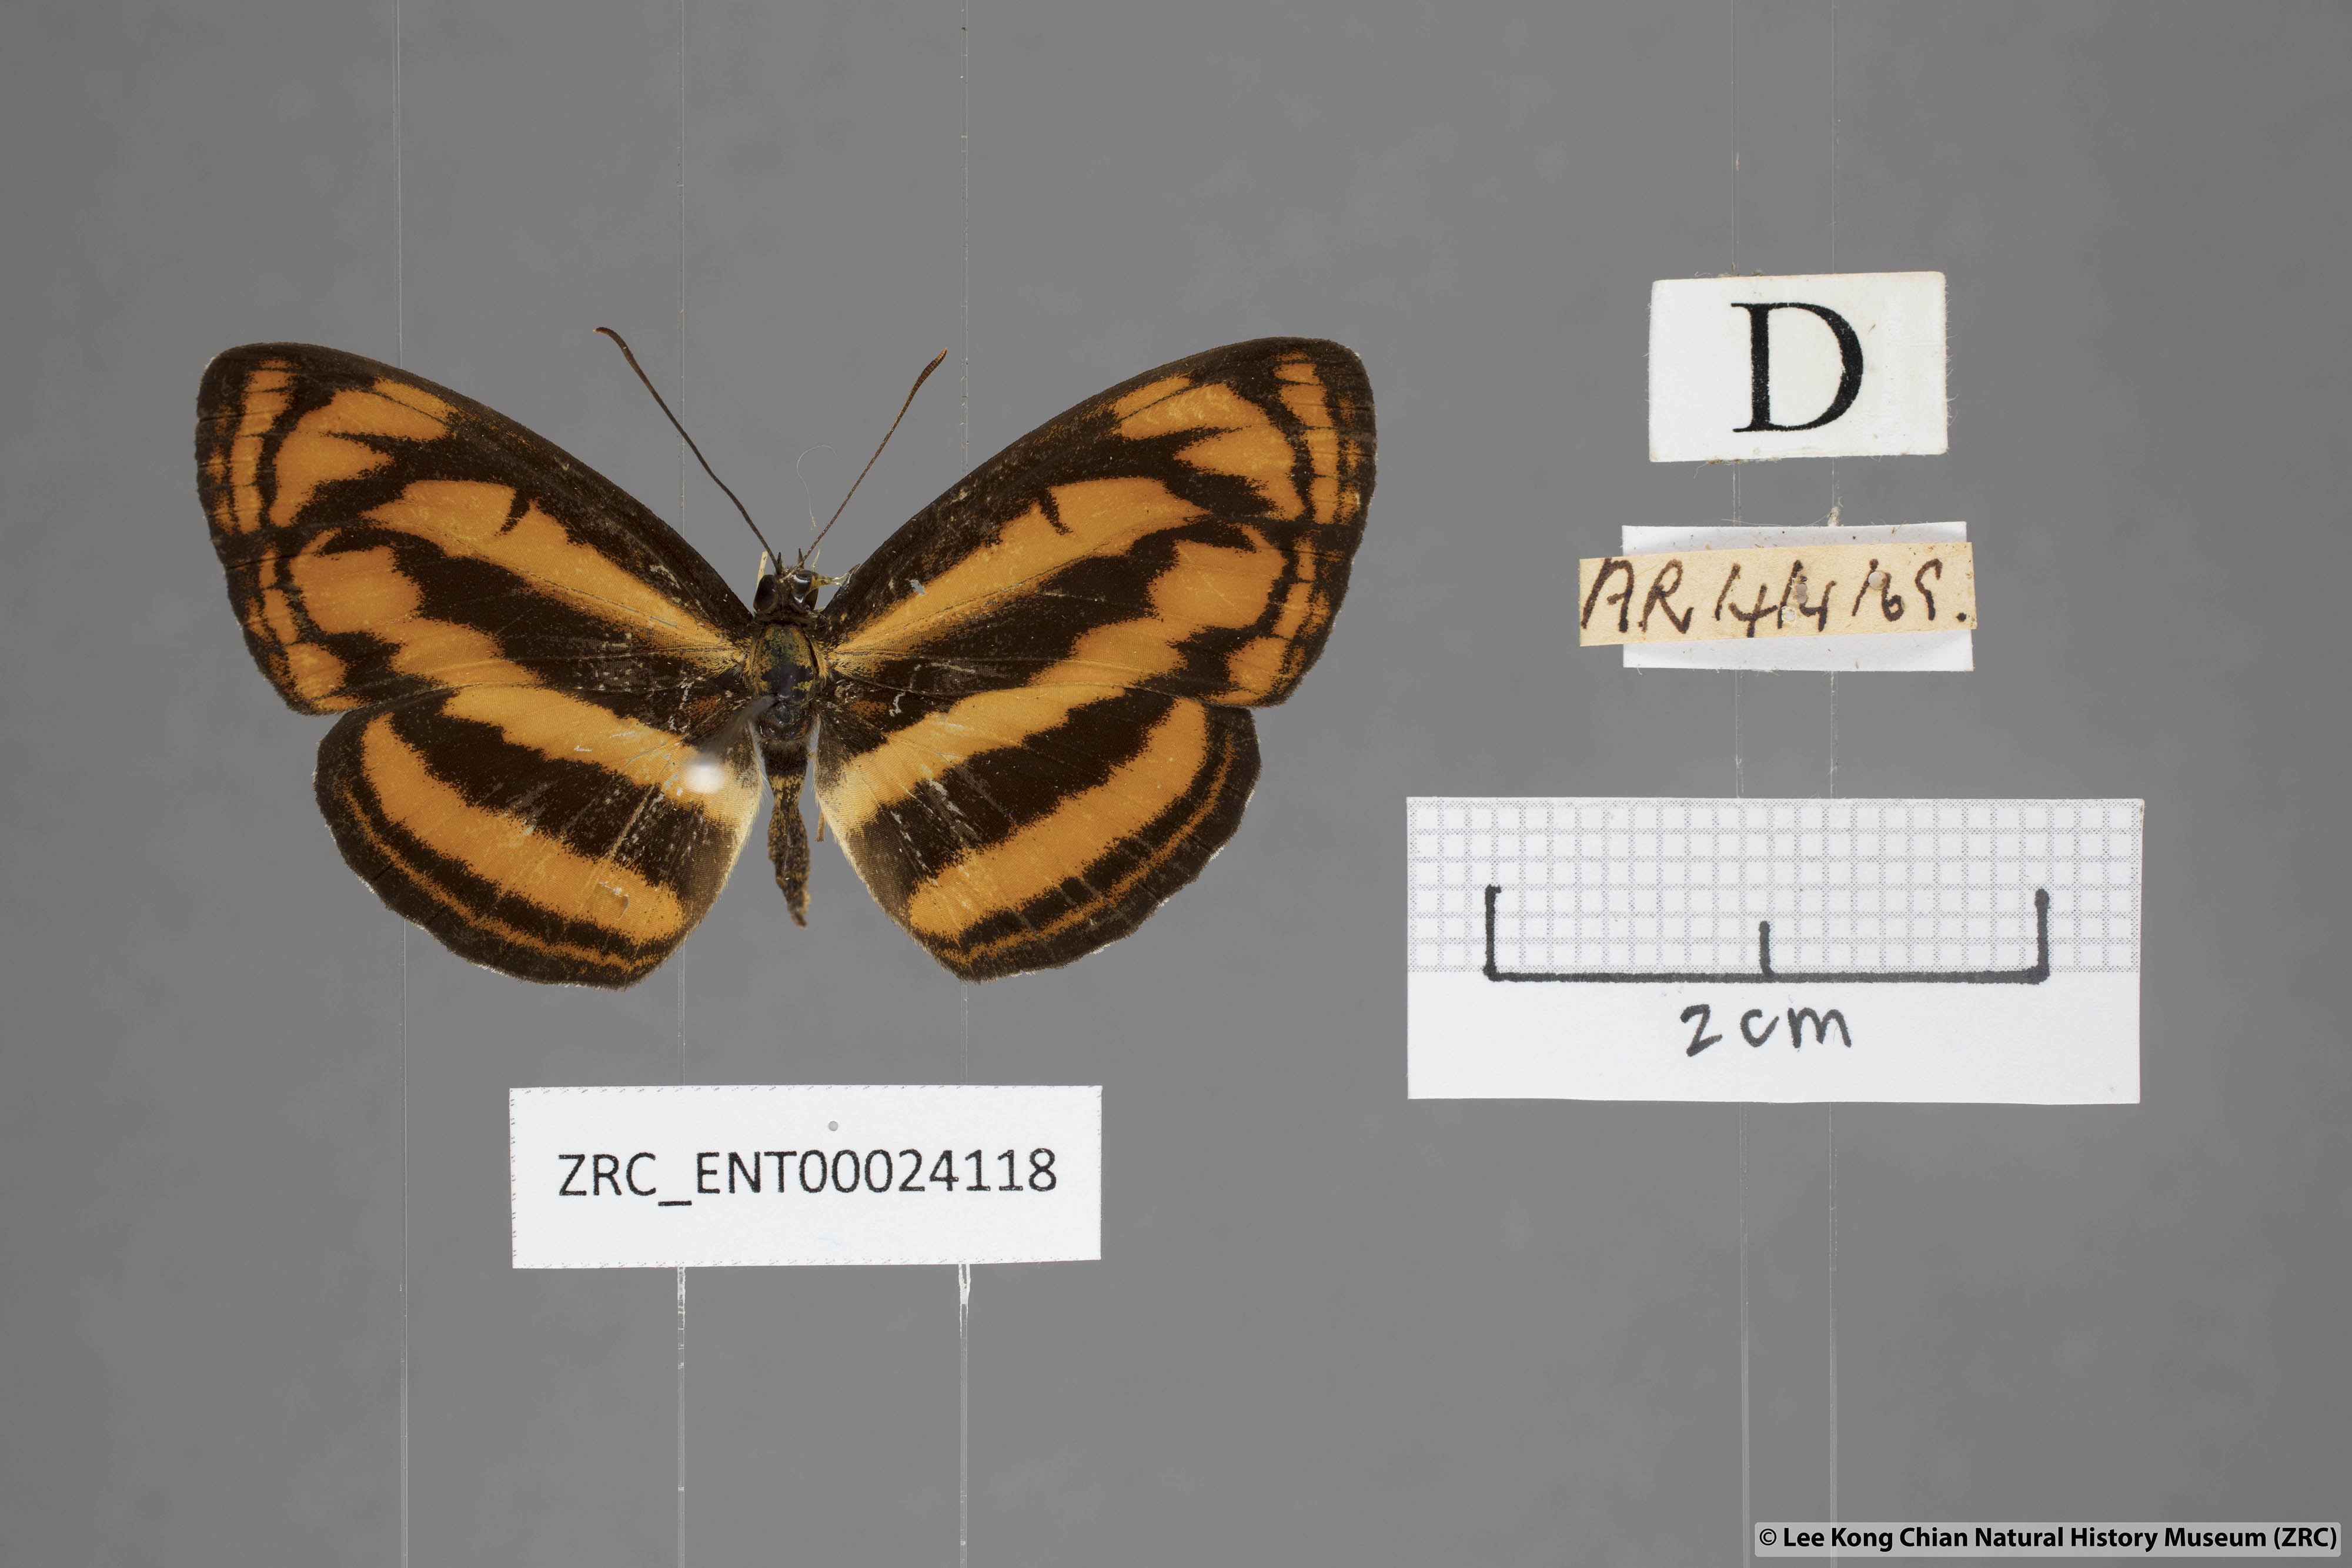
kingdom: Animalia
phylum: Arthropoda
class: Insecta
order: Lepidoptera
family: Nymphalidae
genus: Pantoporia
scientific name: Pantoporia aurelia
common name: Baby lascar
